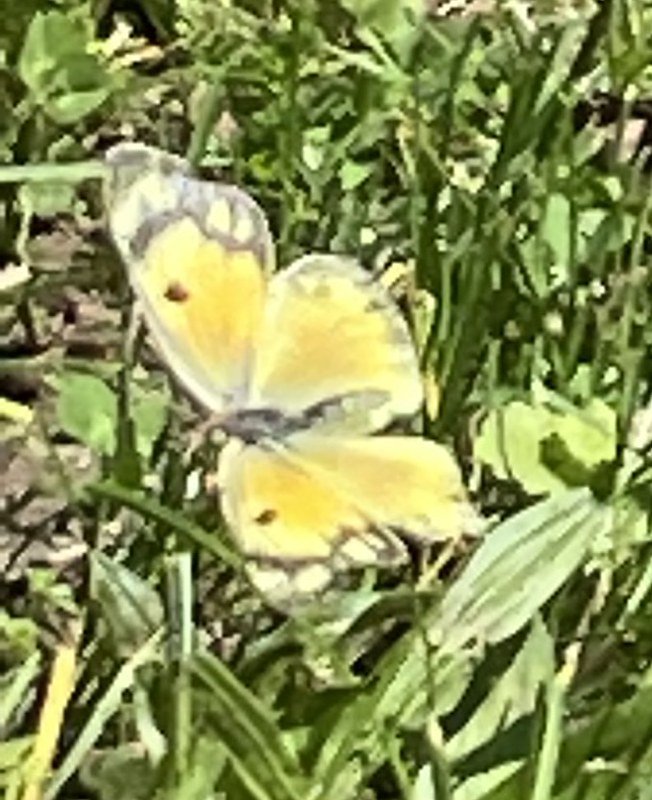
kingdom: Animalia
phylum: Arthropoda
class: Insecta
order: Lepidoptera
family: Pieridae
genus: Colias
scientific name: Colias eurytheme
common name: Orange Sulphur
